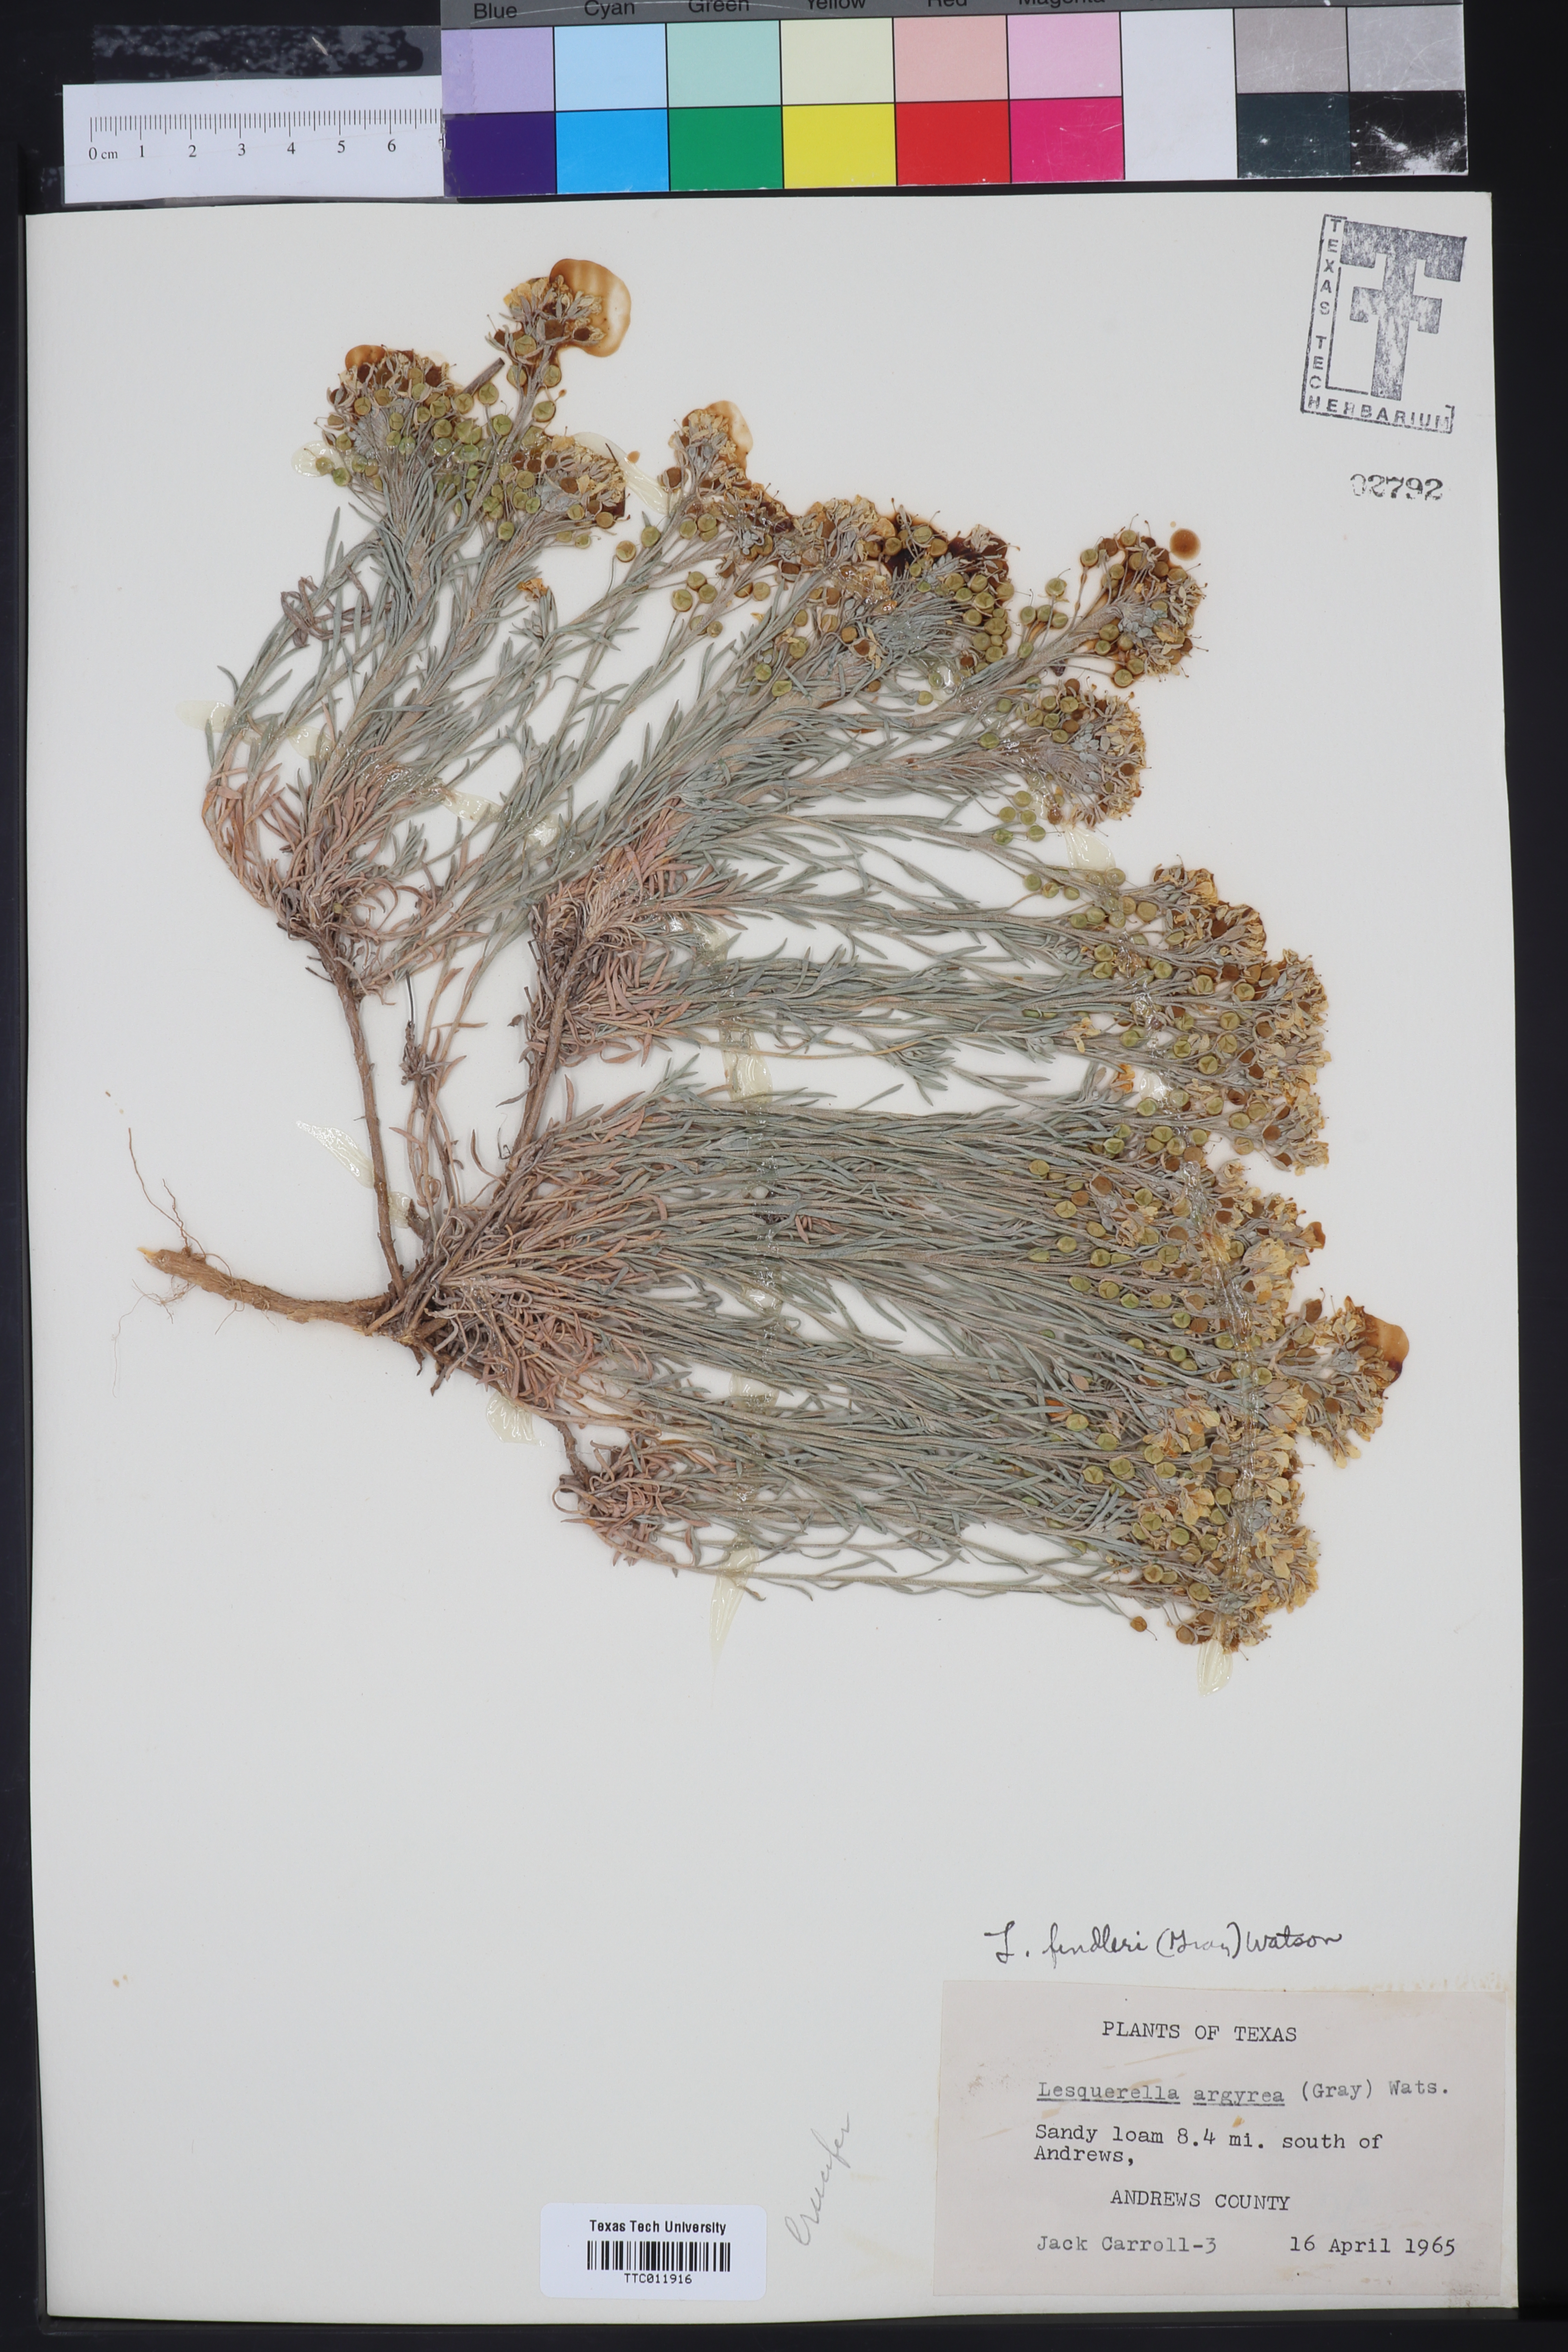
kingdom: Plantae
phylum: Tracheophyta
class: Magnoliopsida
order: Brassicales
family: Brassicaceae
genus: Physaria
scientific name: Physaria fendleri
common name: Fendler's bladderpod
